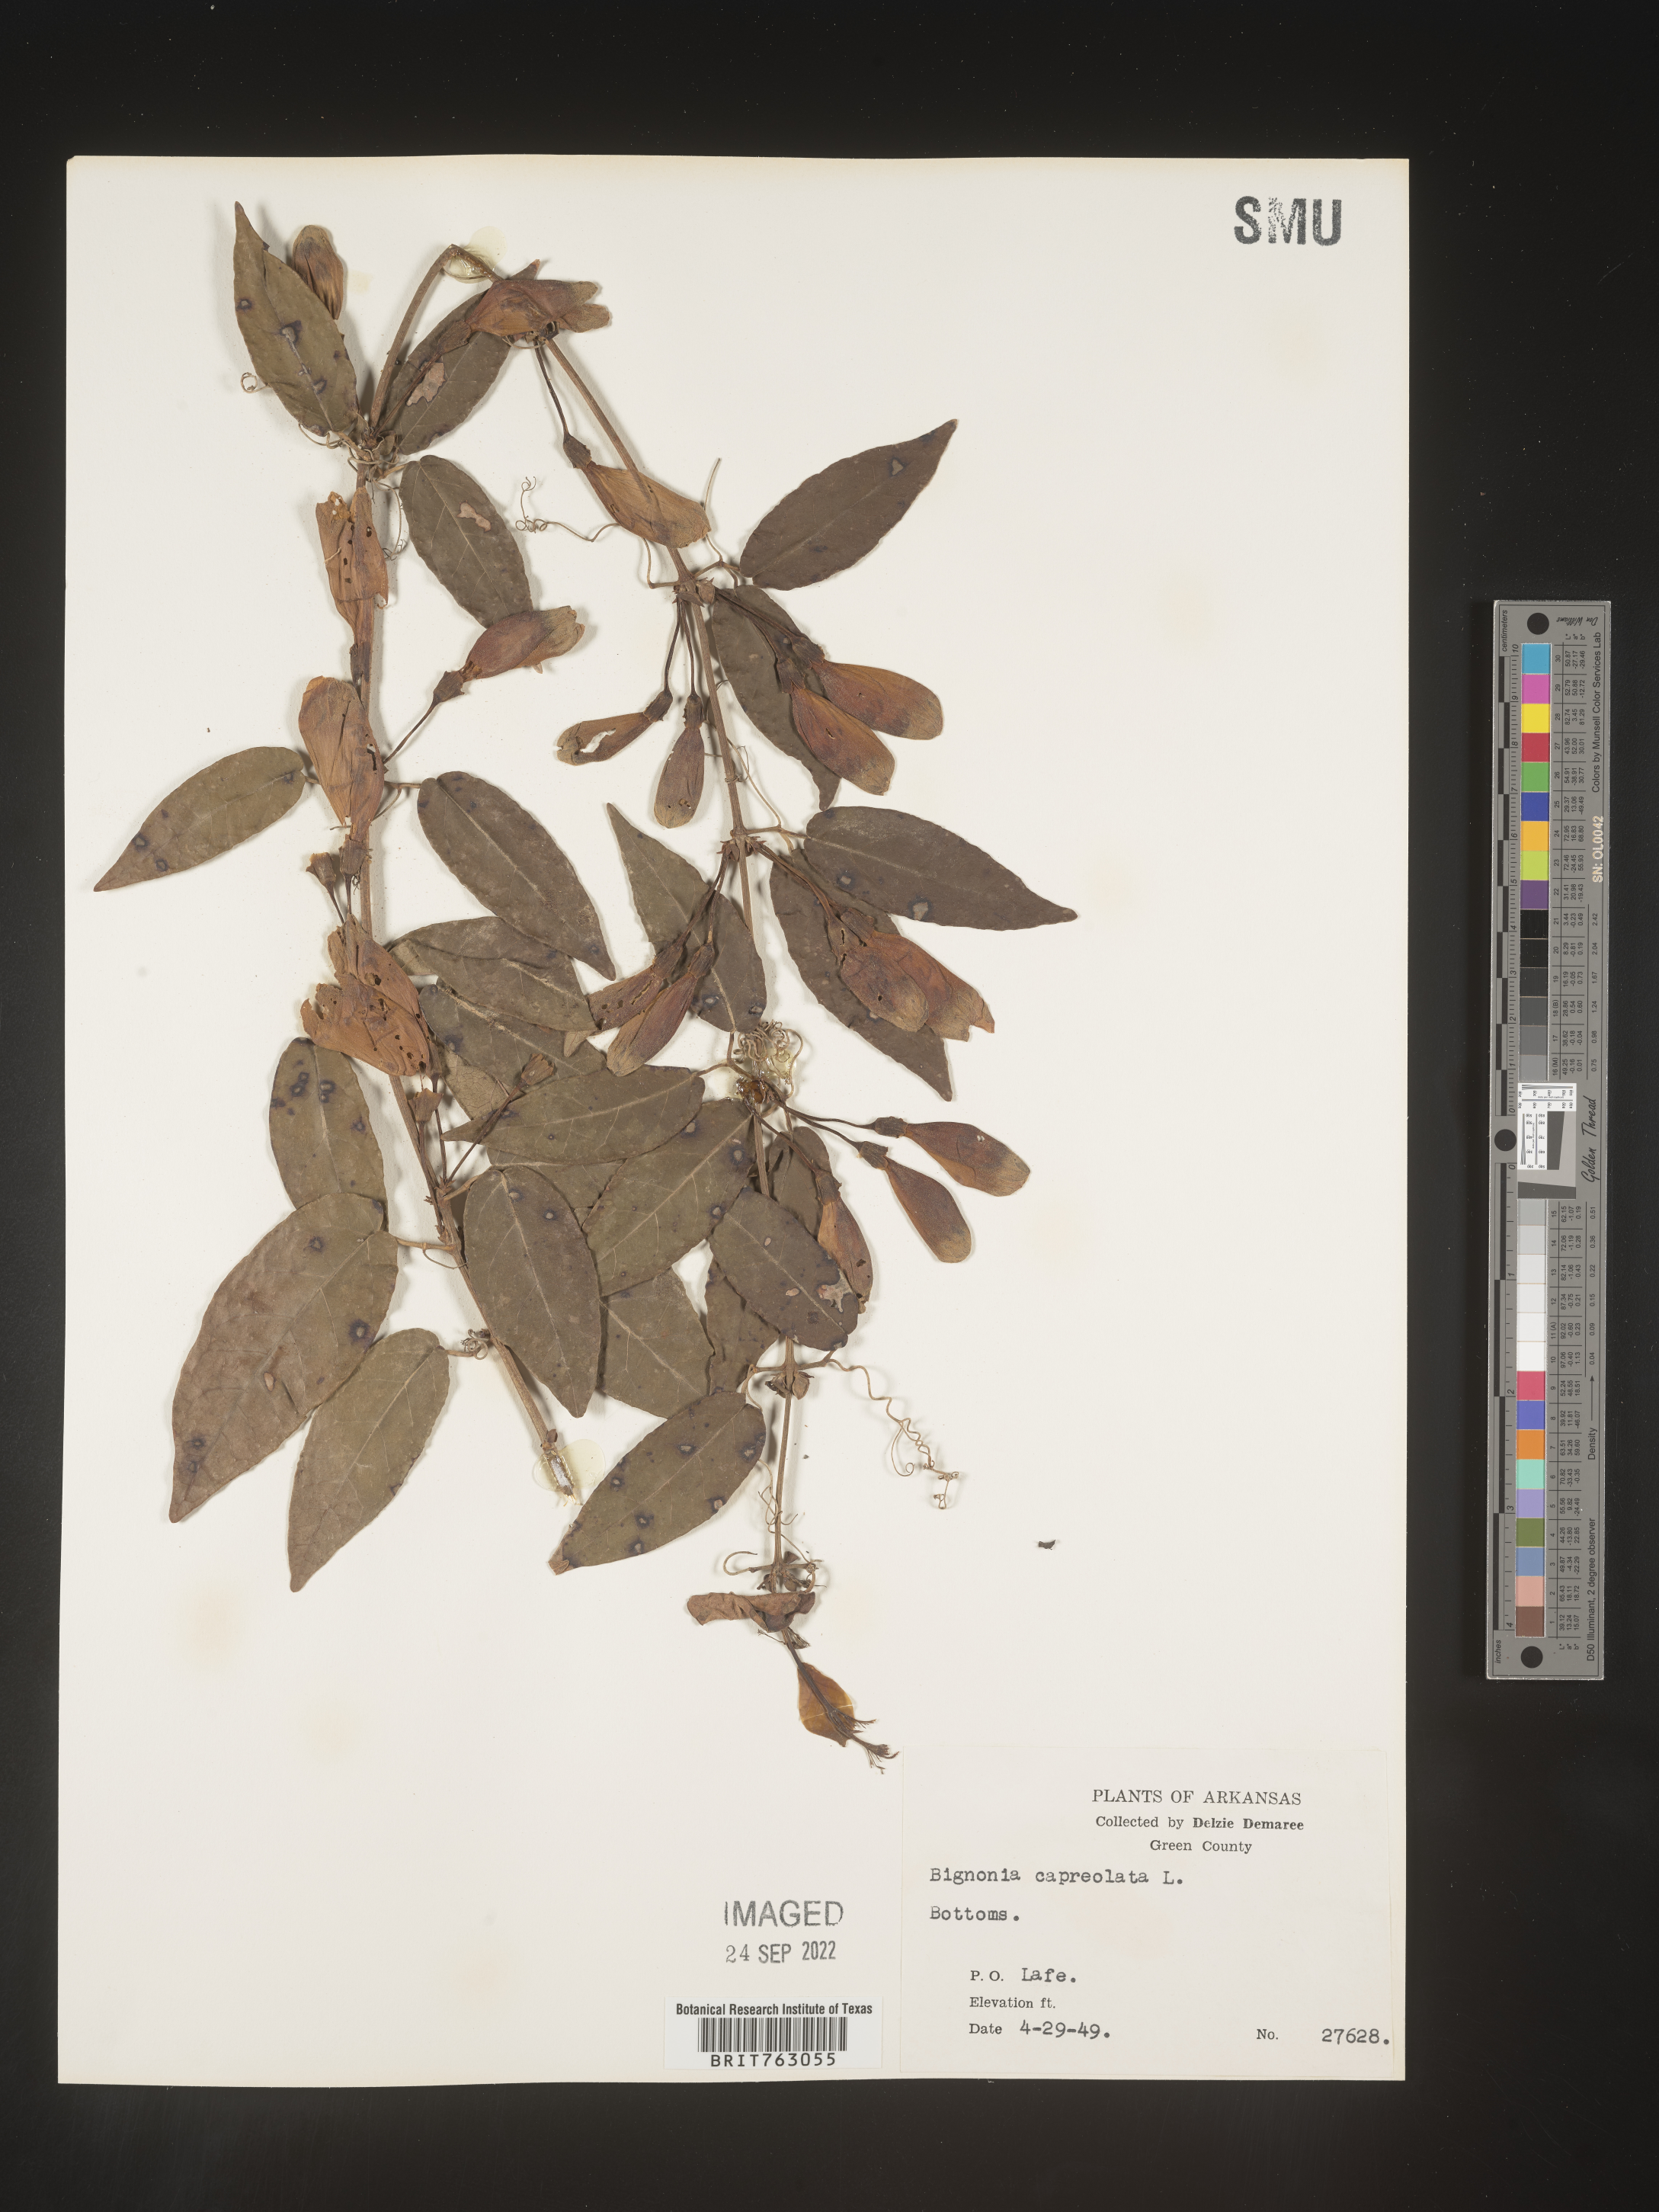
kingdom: Plantae
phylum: Tracheophyta
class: Magnoliopsida
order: Lamiales
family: Bignoniaceae
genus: Bignonia
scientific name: Bignonia capreolata
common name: Crossvine
